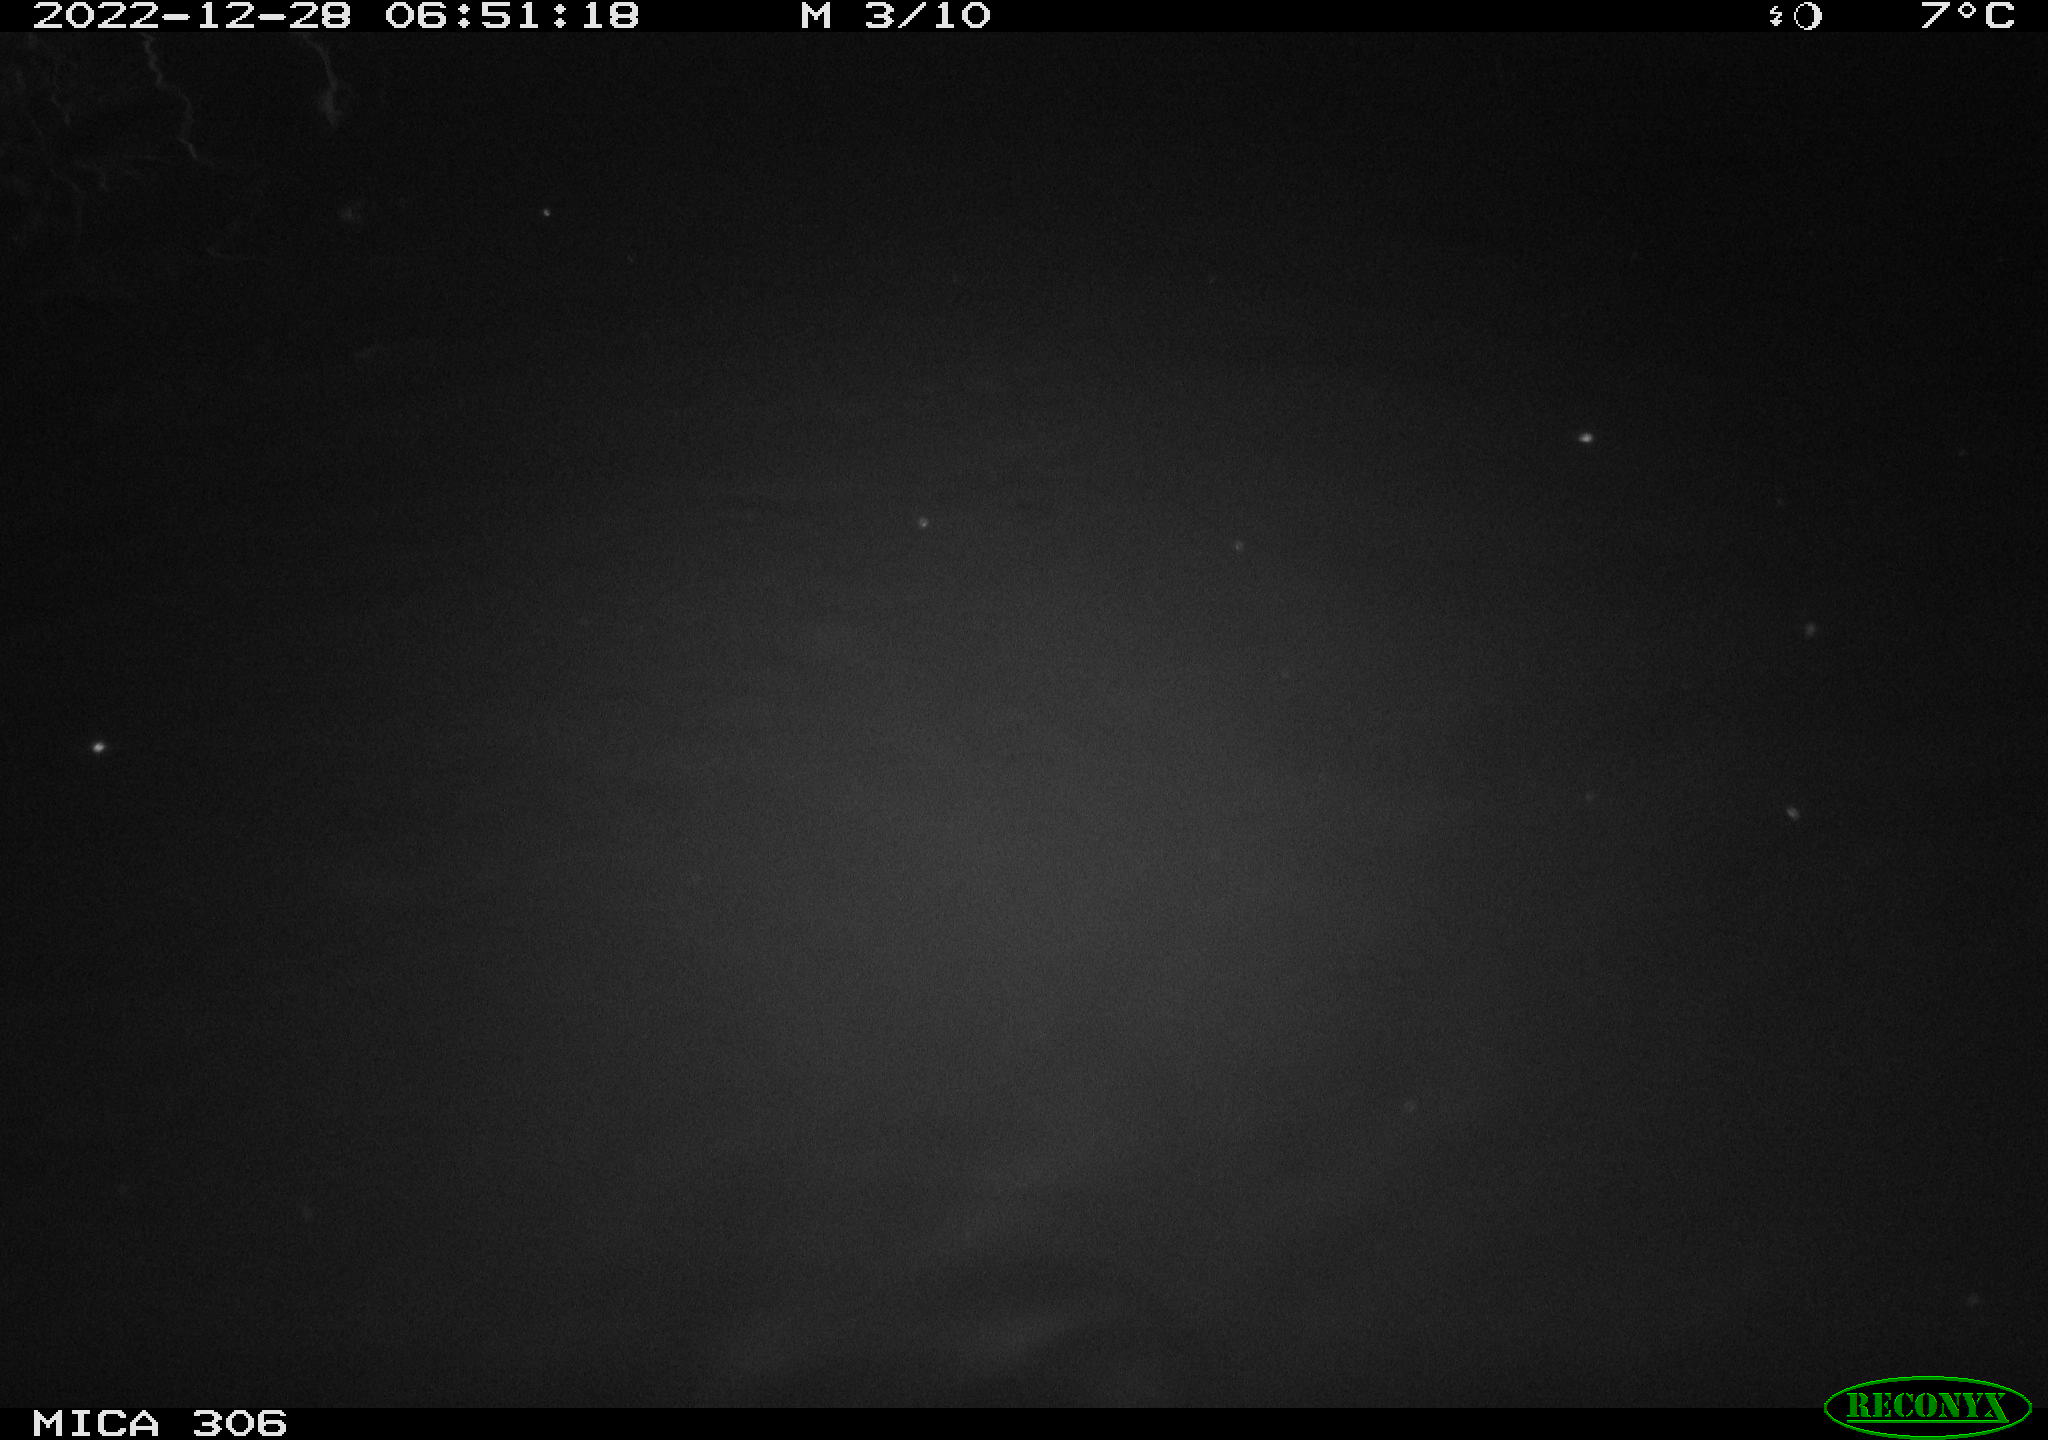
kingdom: Animalia
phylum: Chordata
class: Mammalia
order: Rodentia
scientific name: Rodentia
